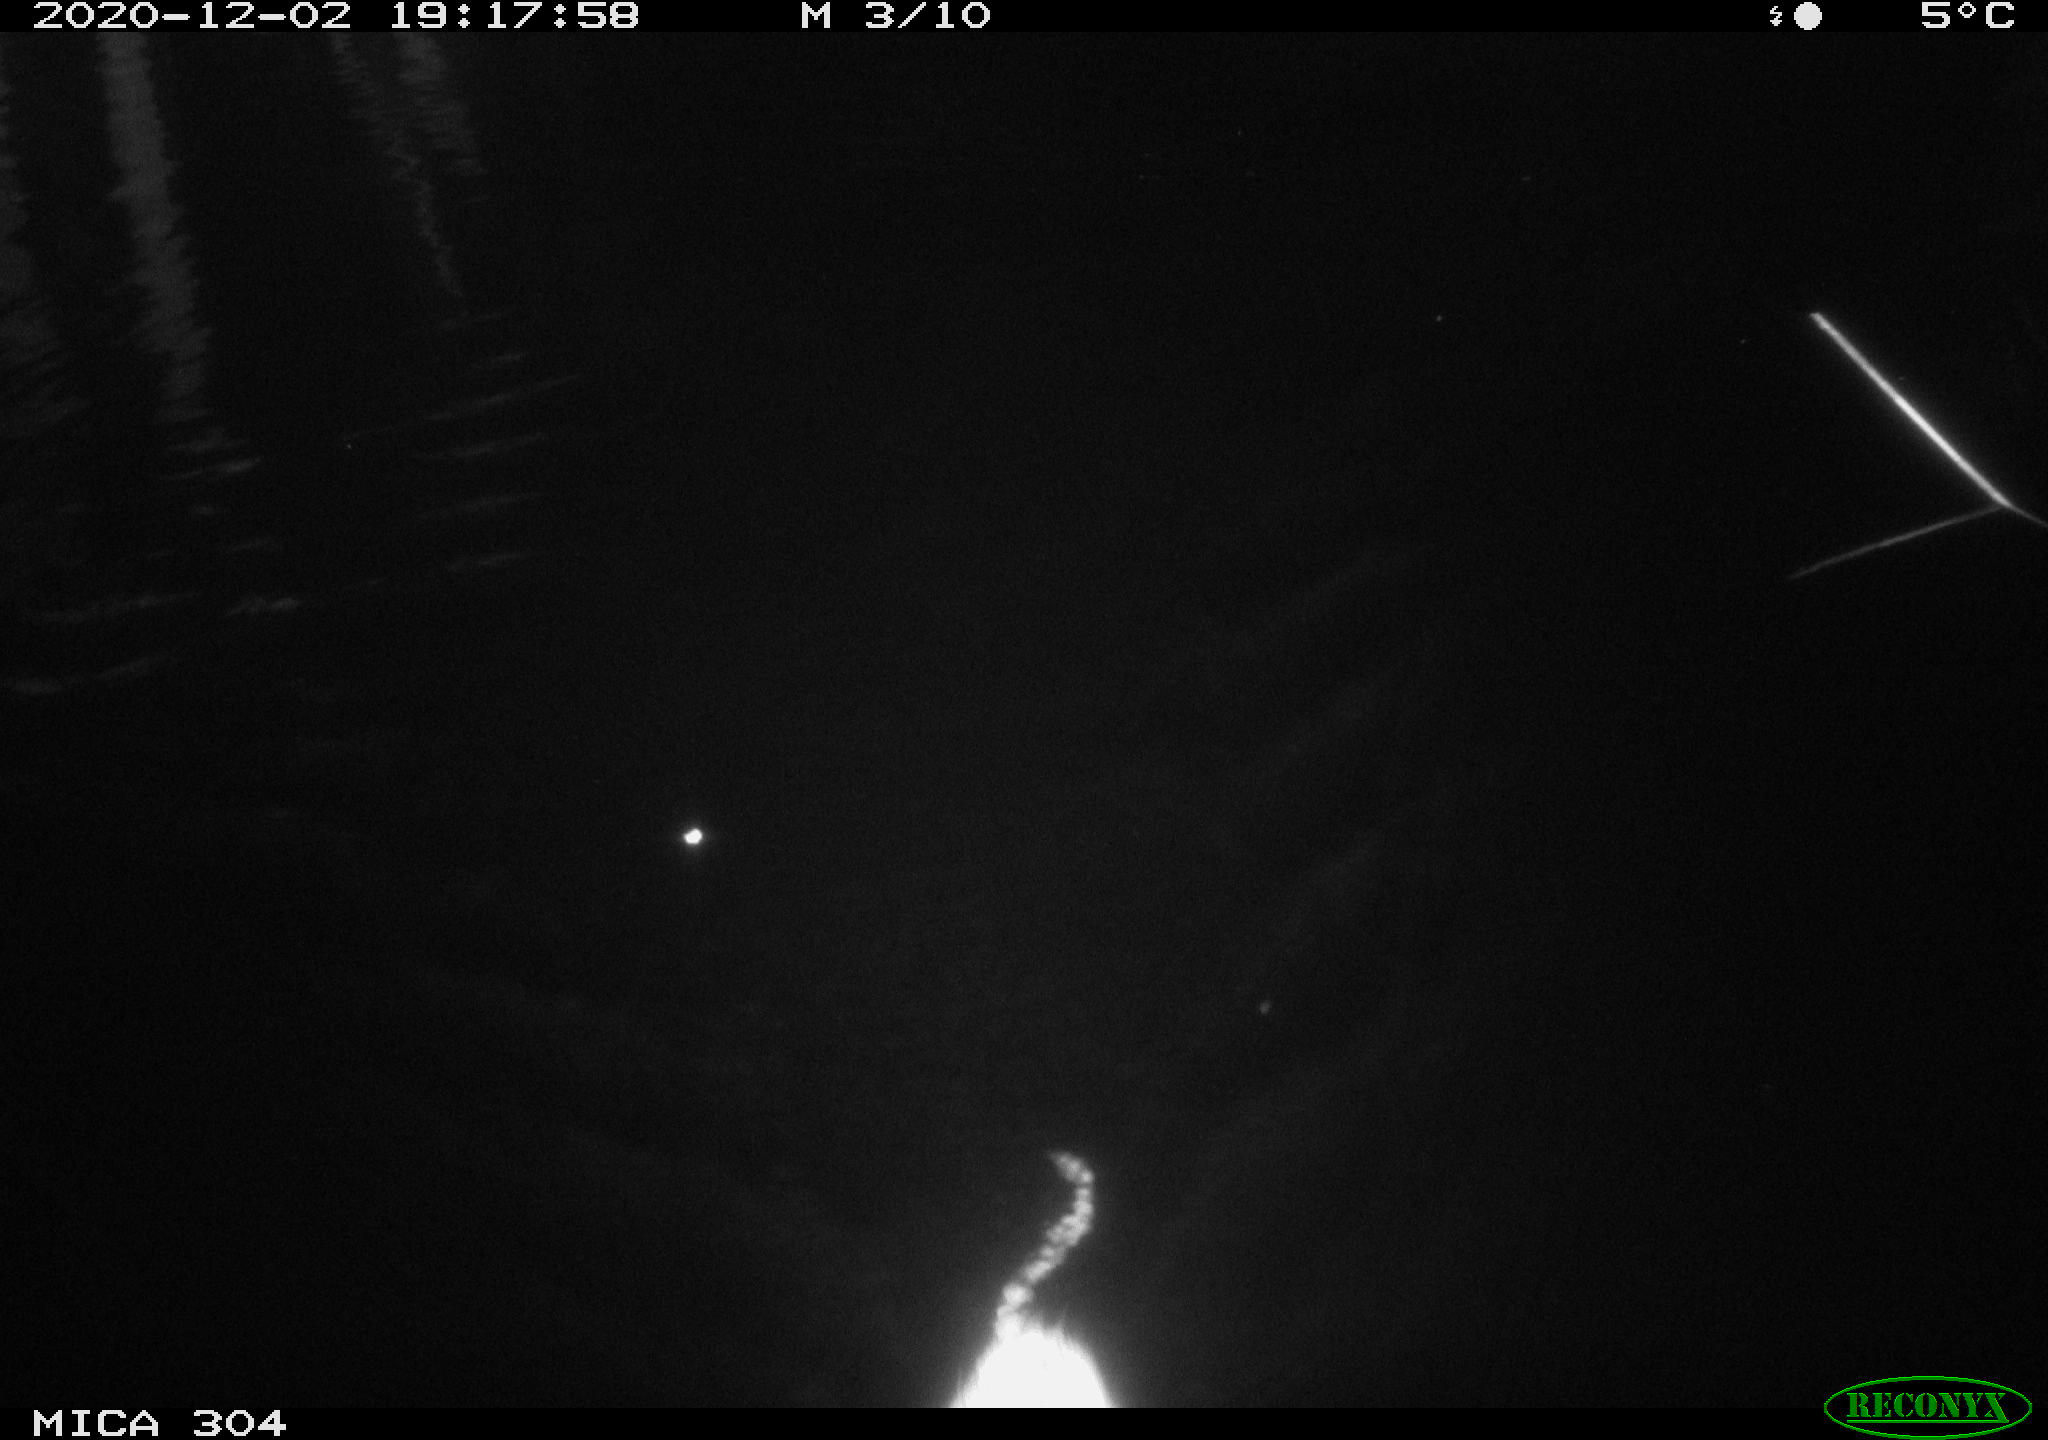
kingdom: Animalia
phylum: Chordata
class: Mammalia
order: Rodentia
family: Muridae
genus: Rattus
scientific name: Rattus norvegicus
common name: Brown rat
